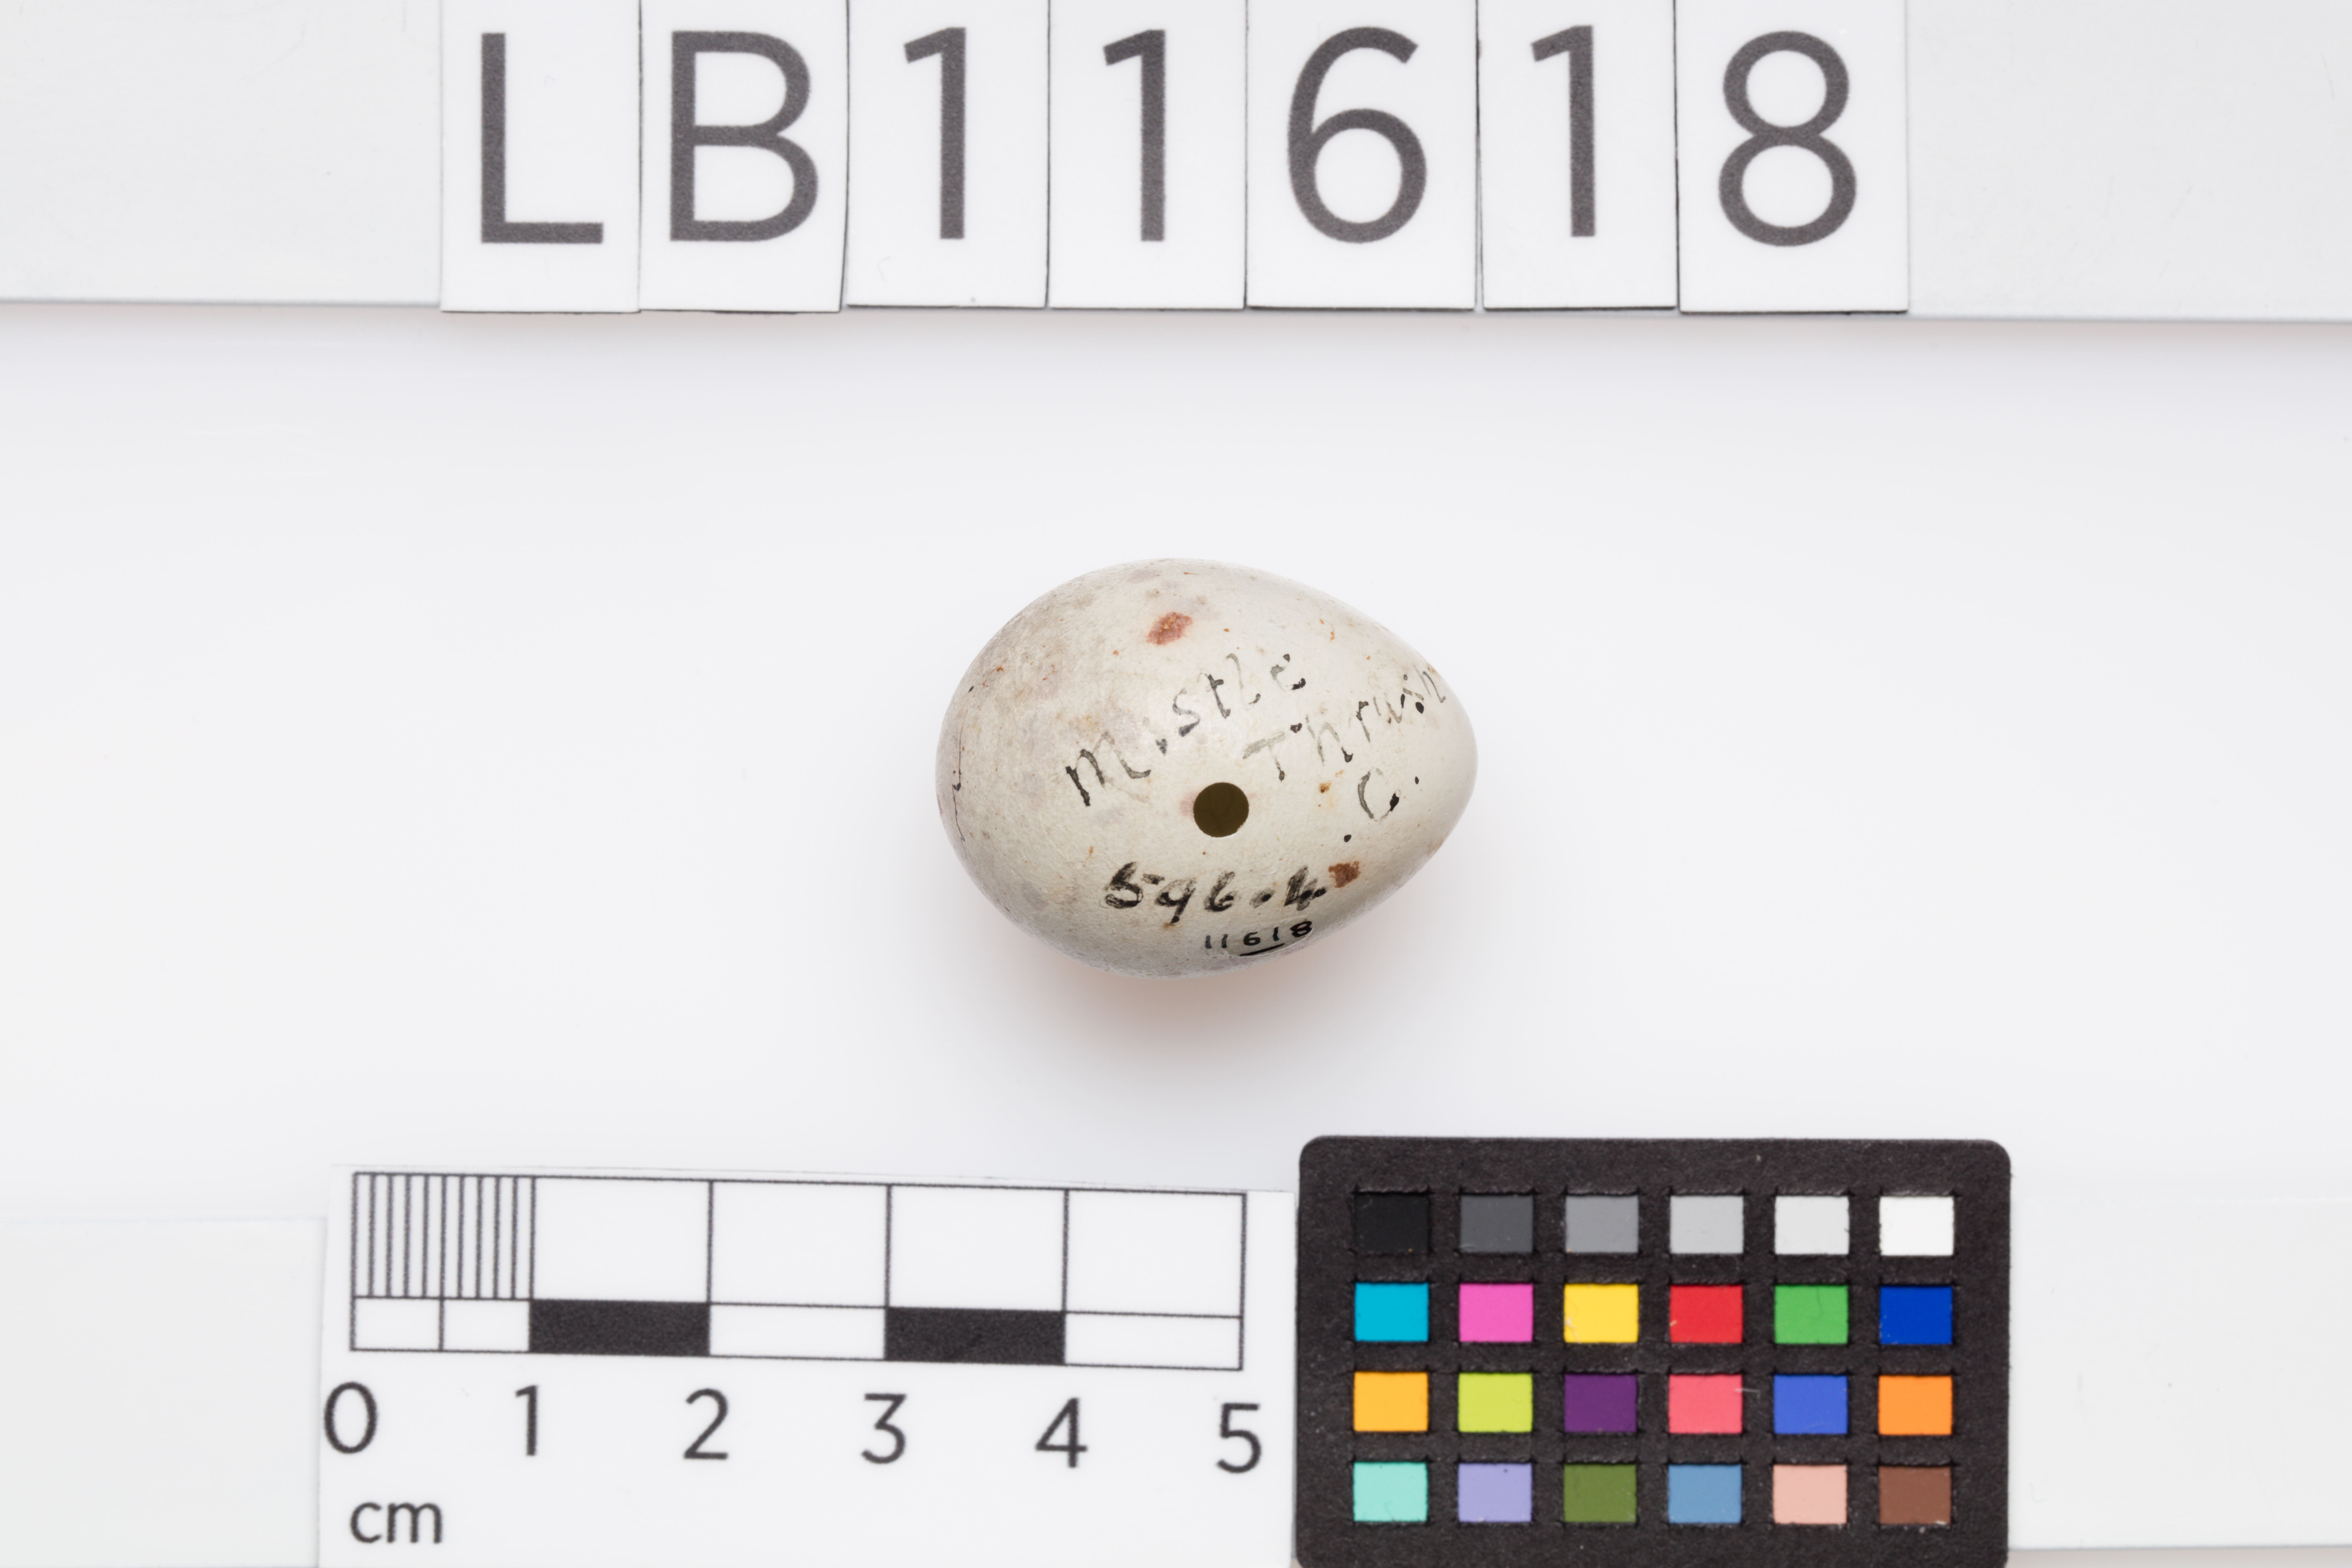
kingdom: Animalia
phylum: Chordata
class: Aves
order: Passeriformes
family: Turdidae
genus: Turdus
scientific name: Turdus viscivorus
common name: Mistle thrush
